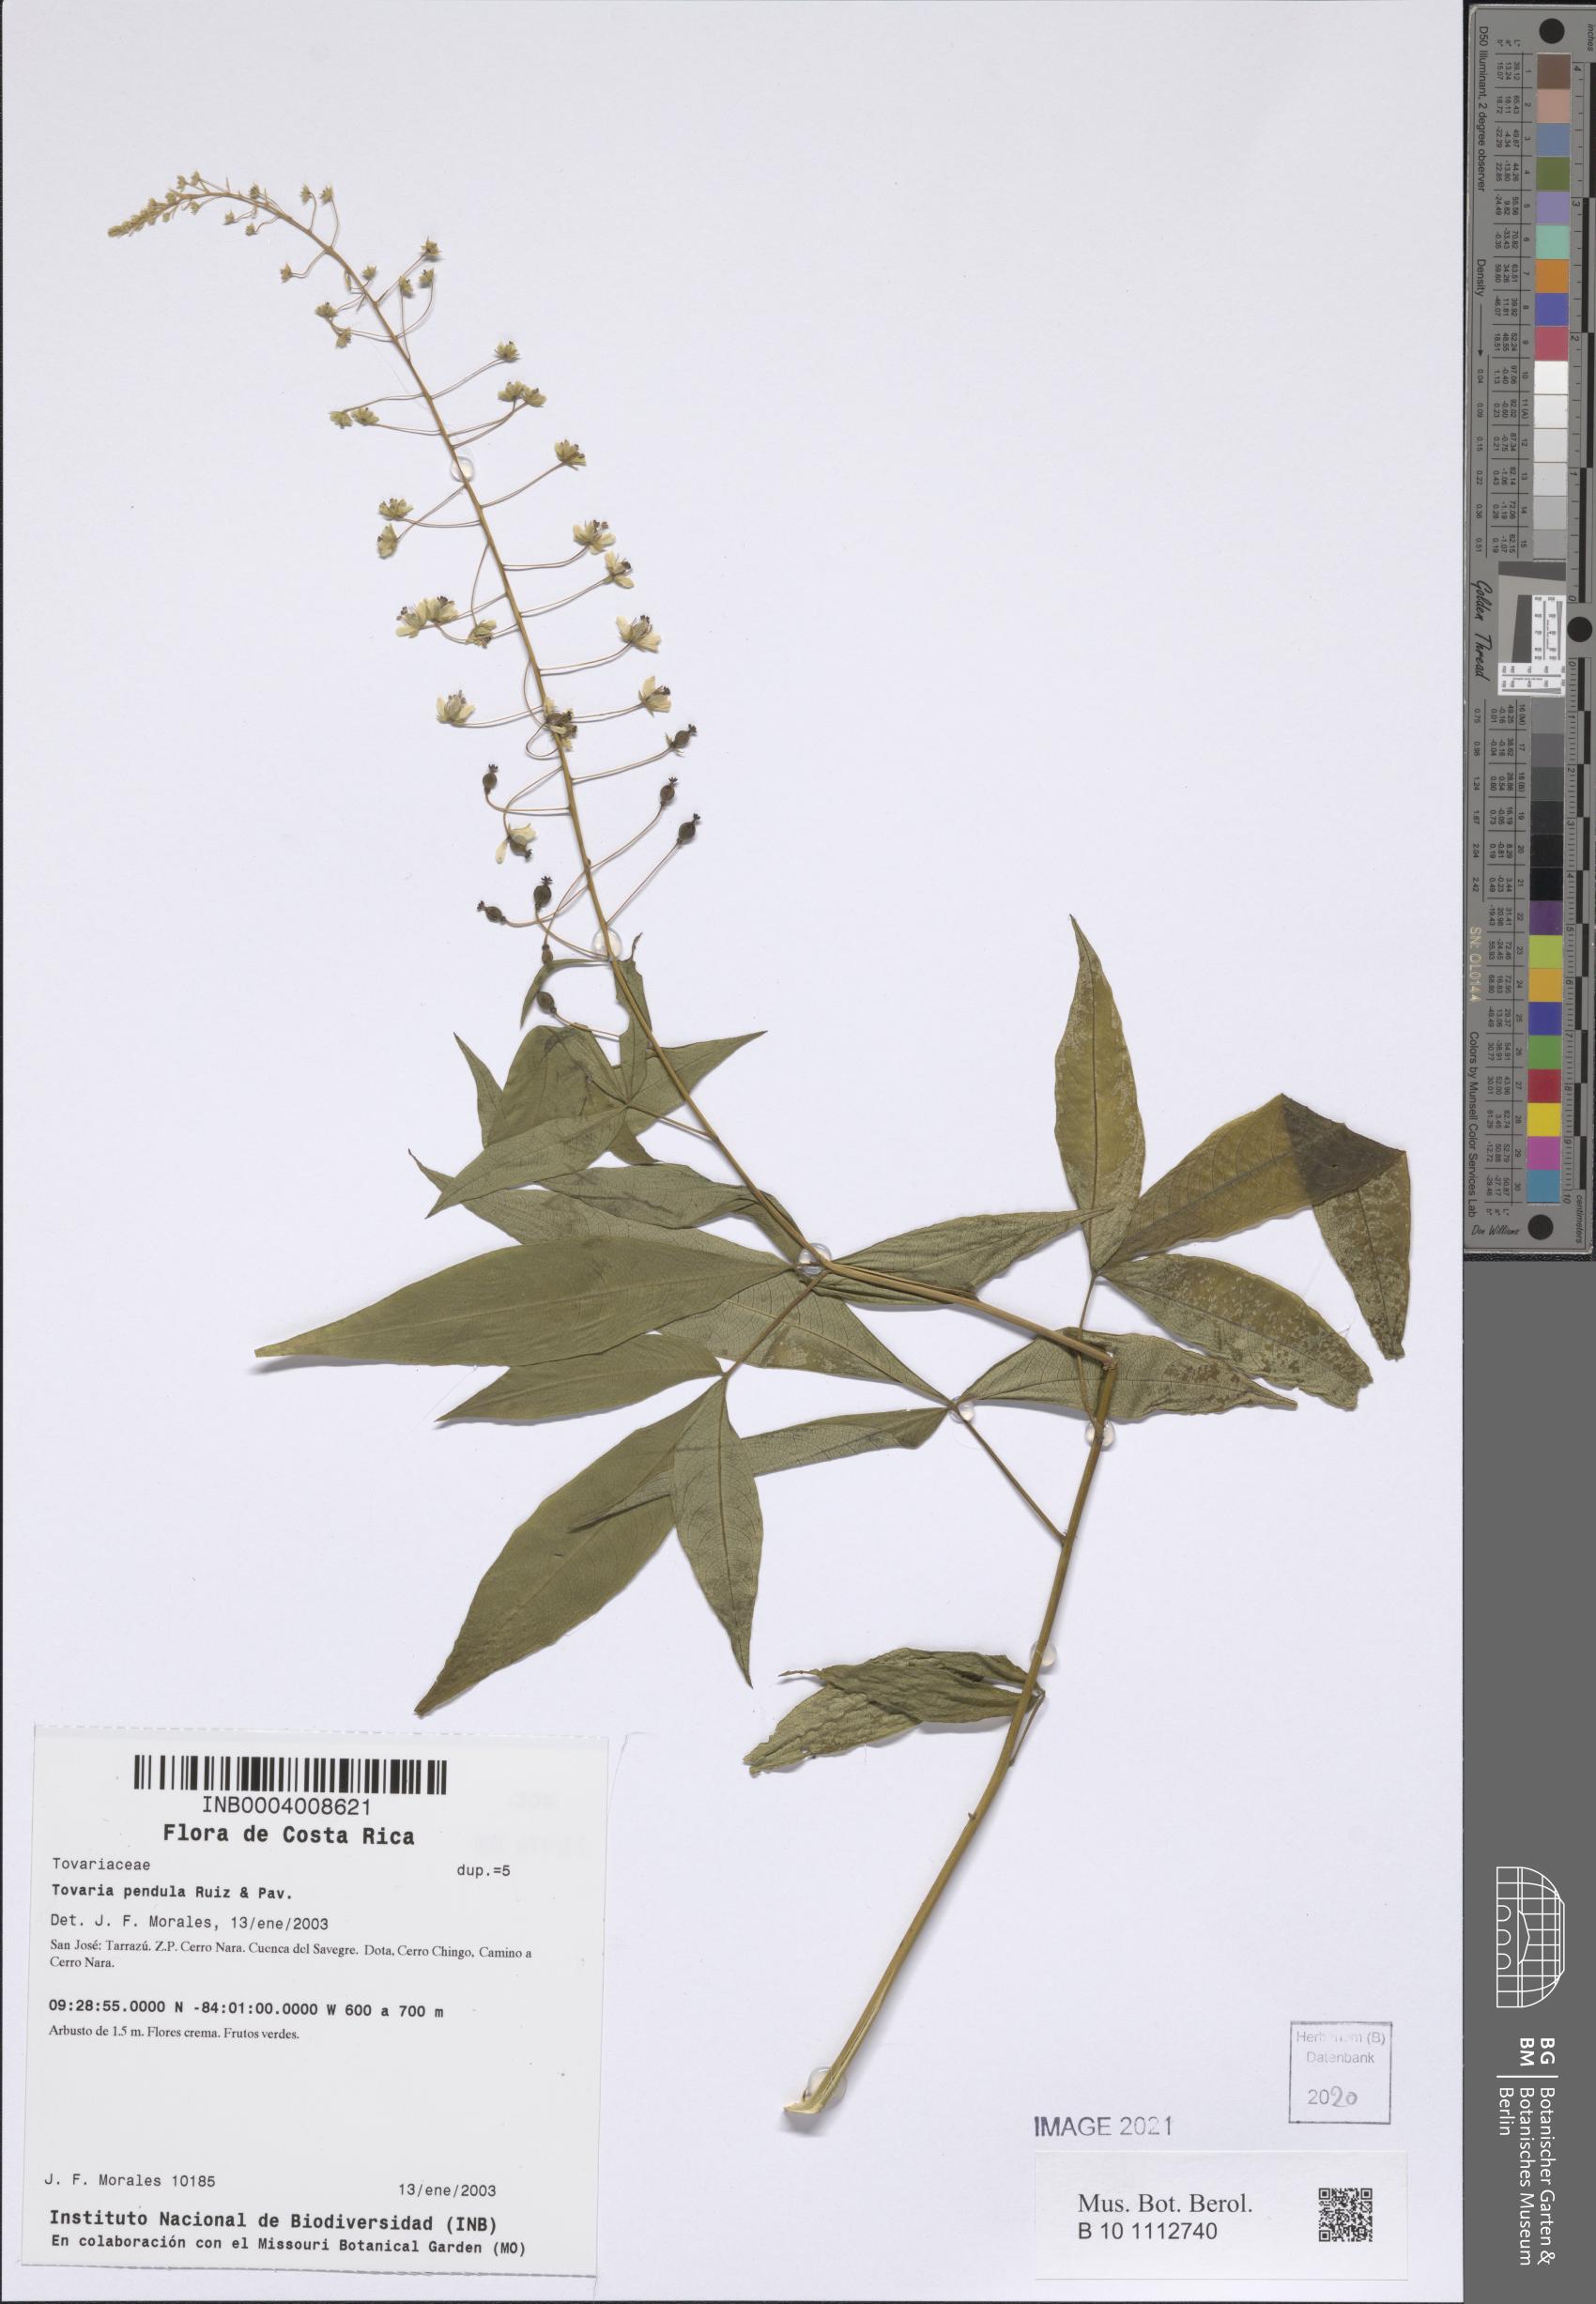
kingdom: Plantae
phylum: Tracheophyta
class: Magnoliopsida
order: Brassicales
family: Tovariaceae
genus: Tovaria
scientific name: Tovaria pendula
